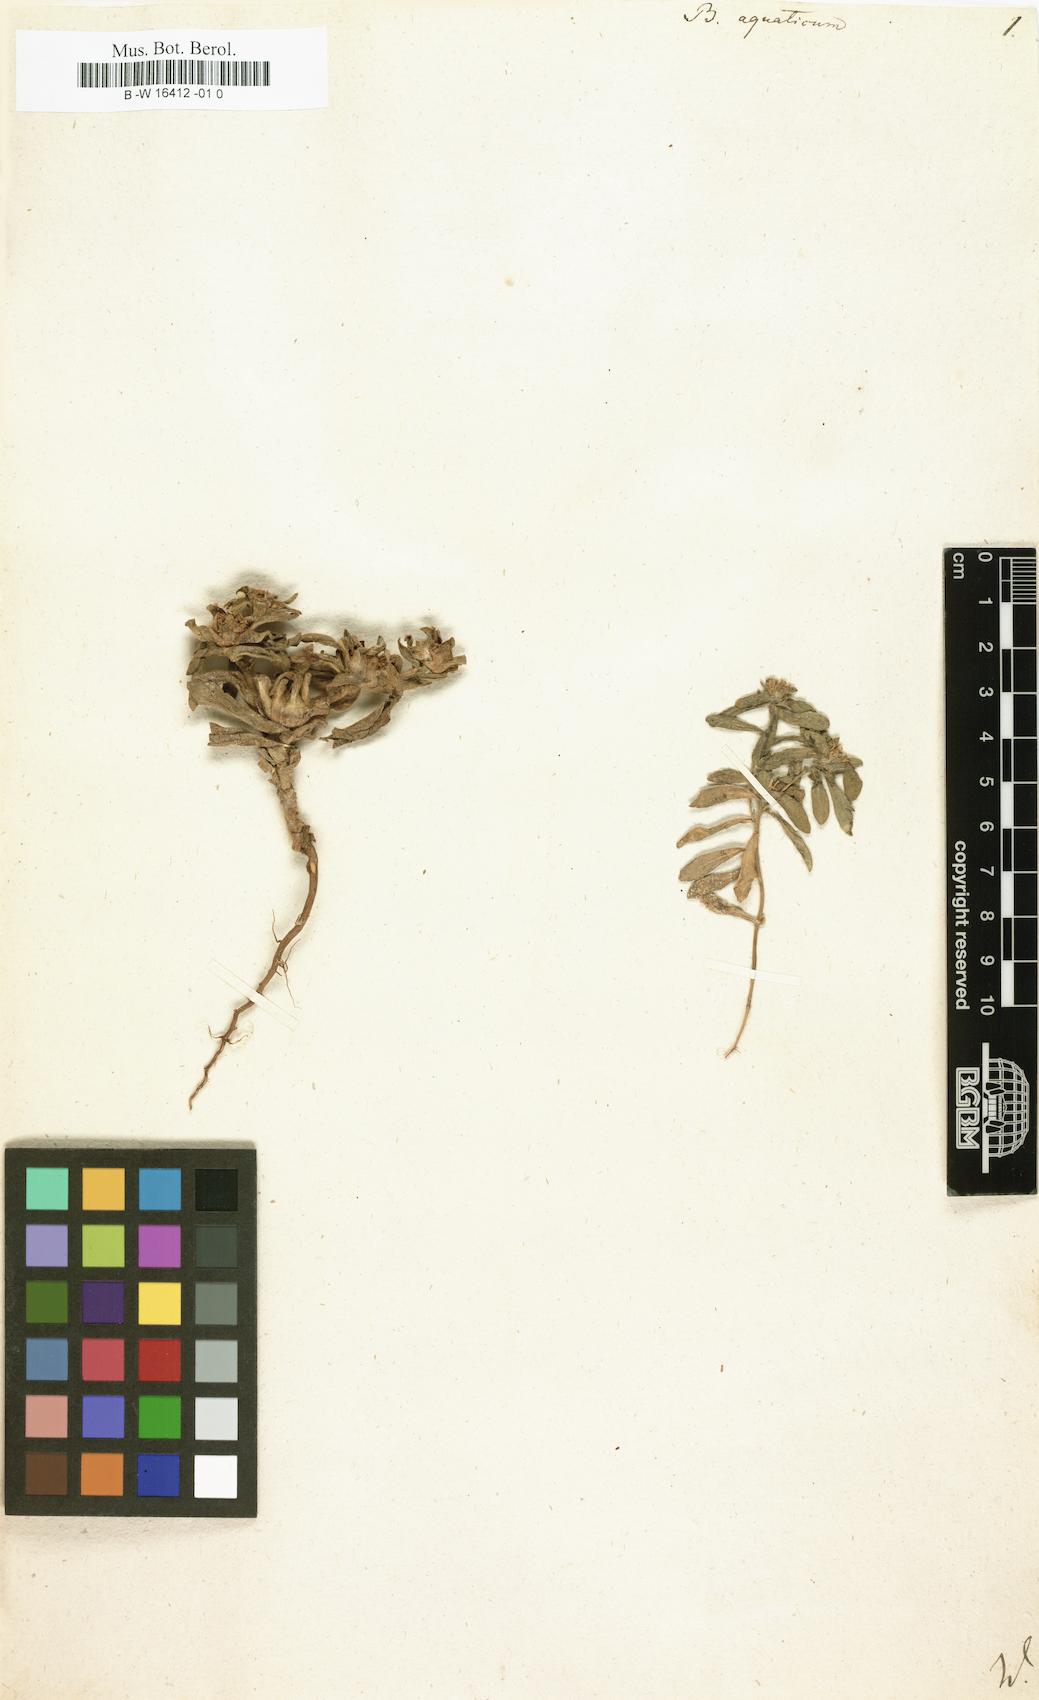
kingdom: Plantae
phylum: Tracheophyta
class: Magnoliopsida
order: Asterales
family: Asteraceae
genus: Asteriscus
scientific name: Asteriscus aquaticus
